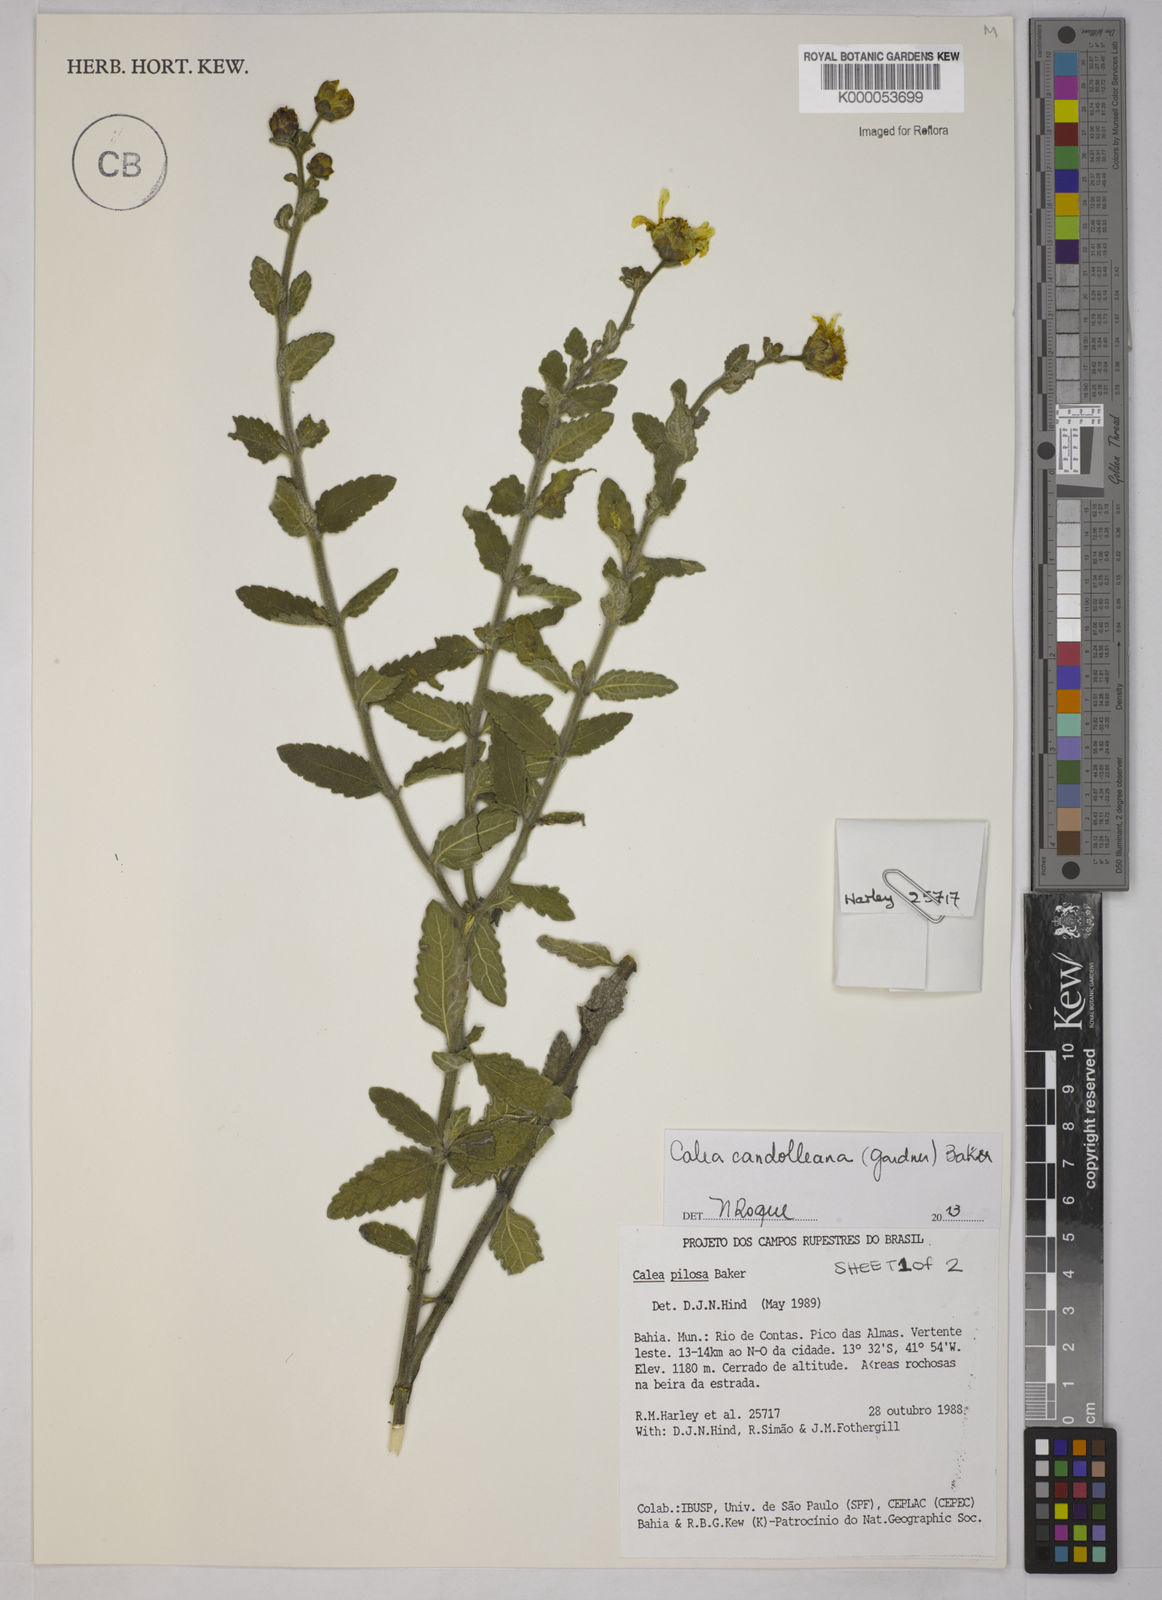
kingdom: Plantae
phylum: Tracheophyta
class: Magnoliopsida
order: Asterales
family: Asteraceae
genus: Calea
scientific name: Calea pilosa
